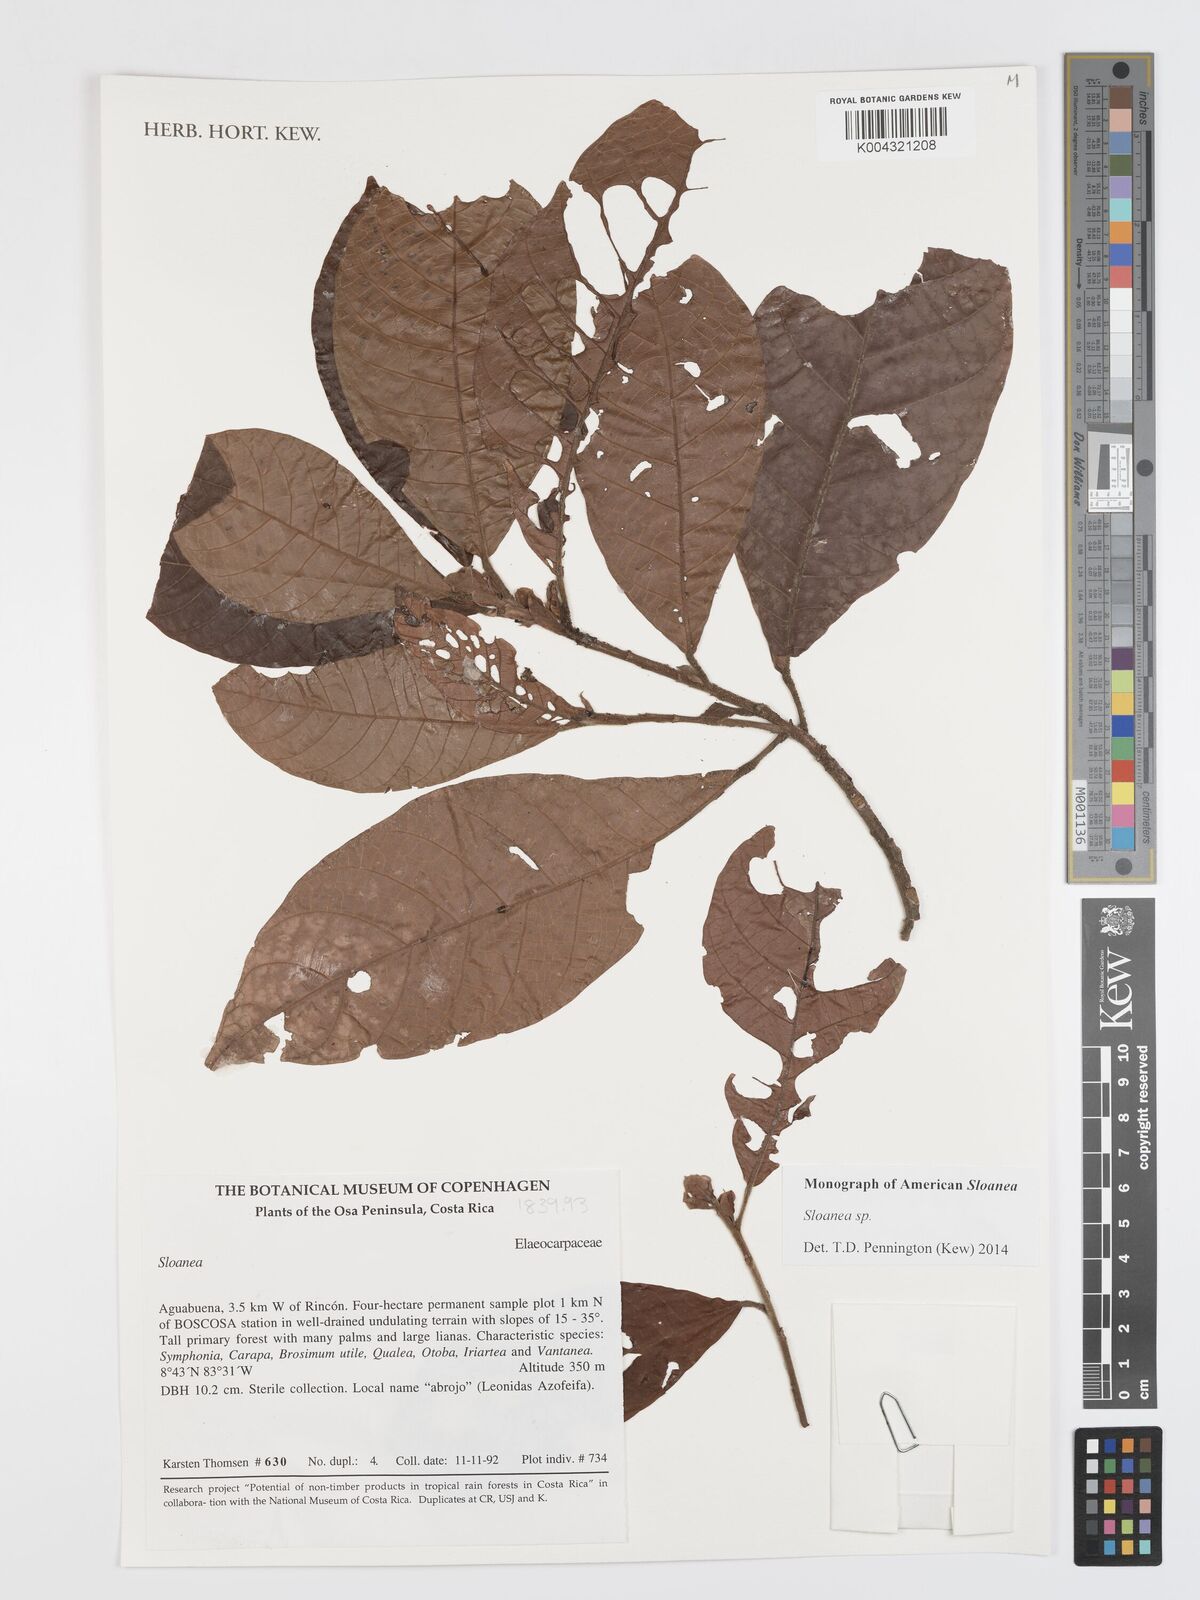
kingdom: Plantae
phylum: Tracheophyta
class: Magnoliopsida
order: Oxalidales
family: Elaeocarpaceae
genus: Sloanea
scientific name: Sloanea
